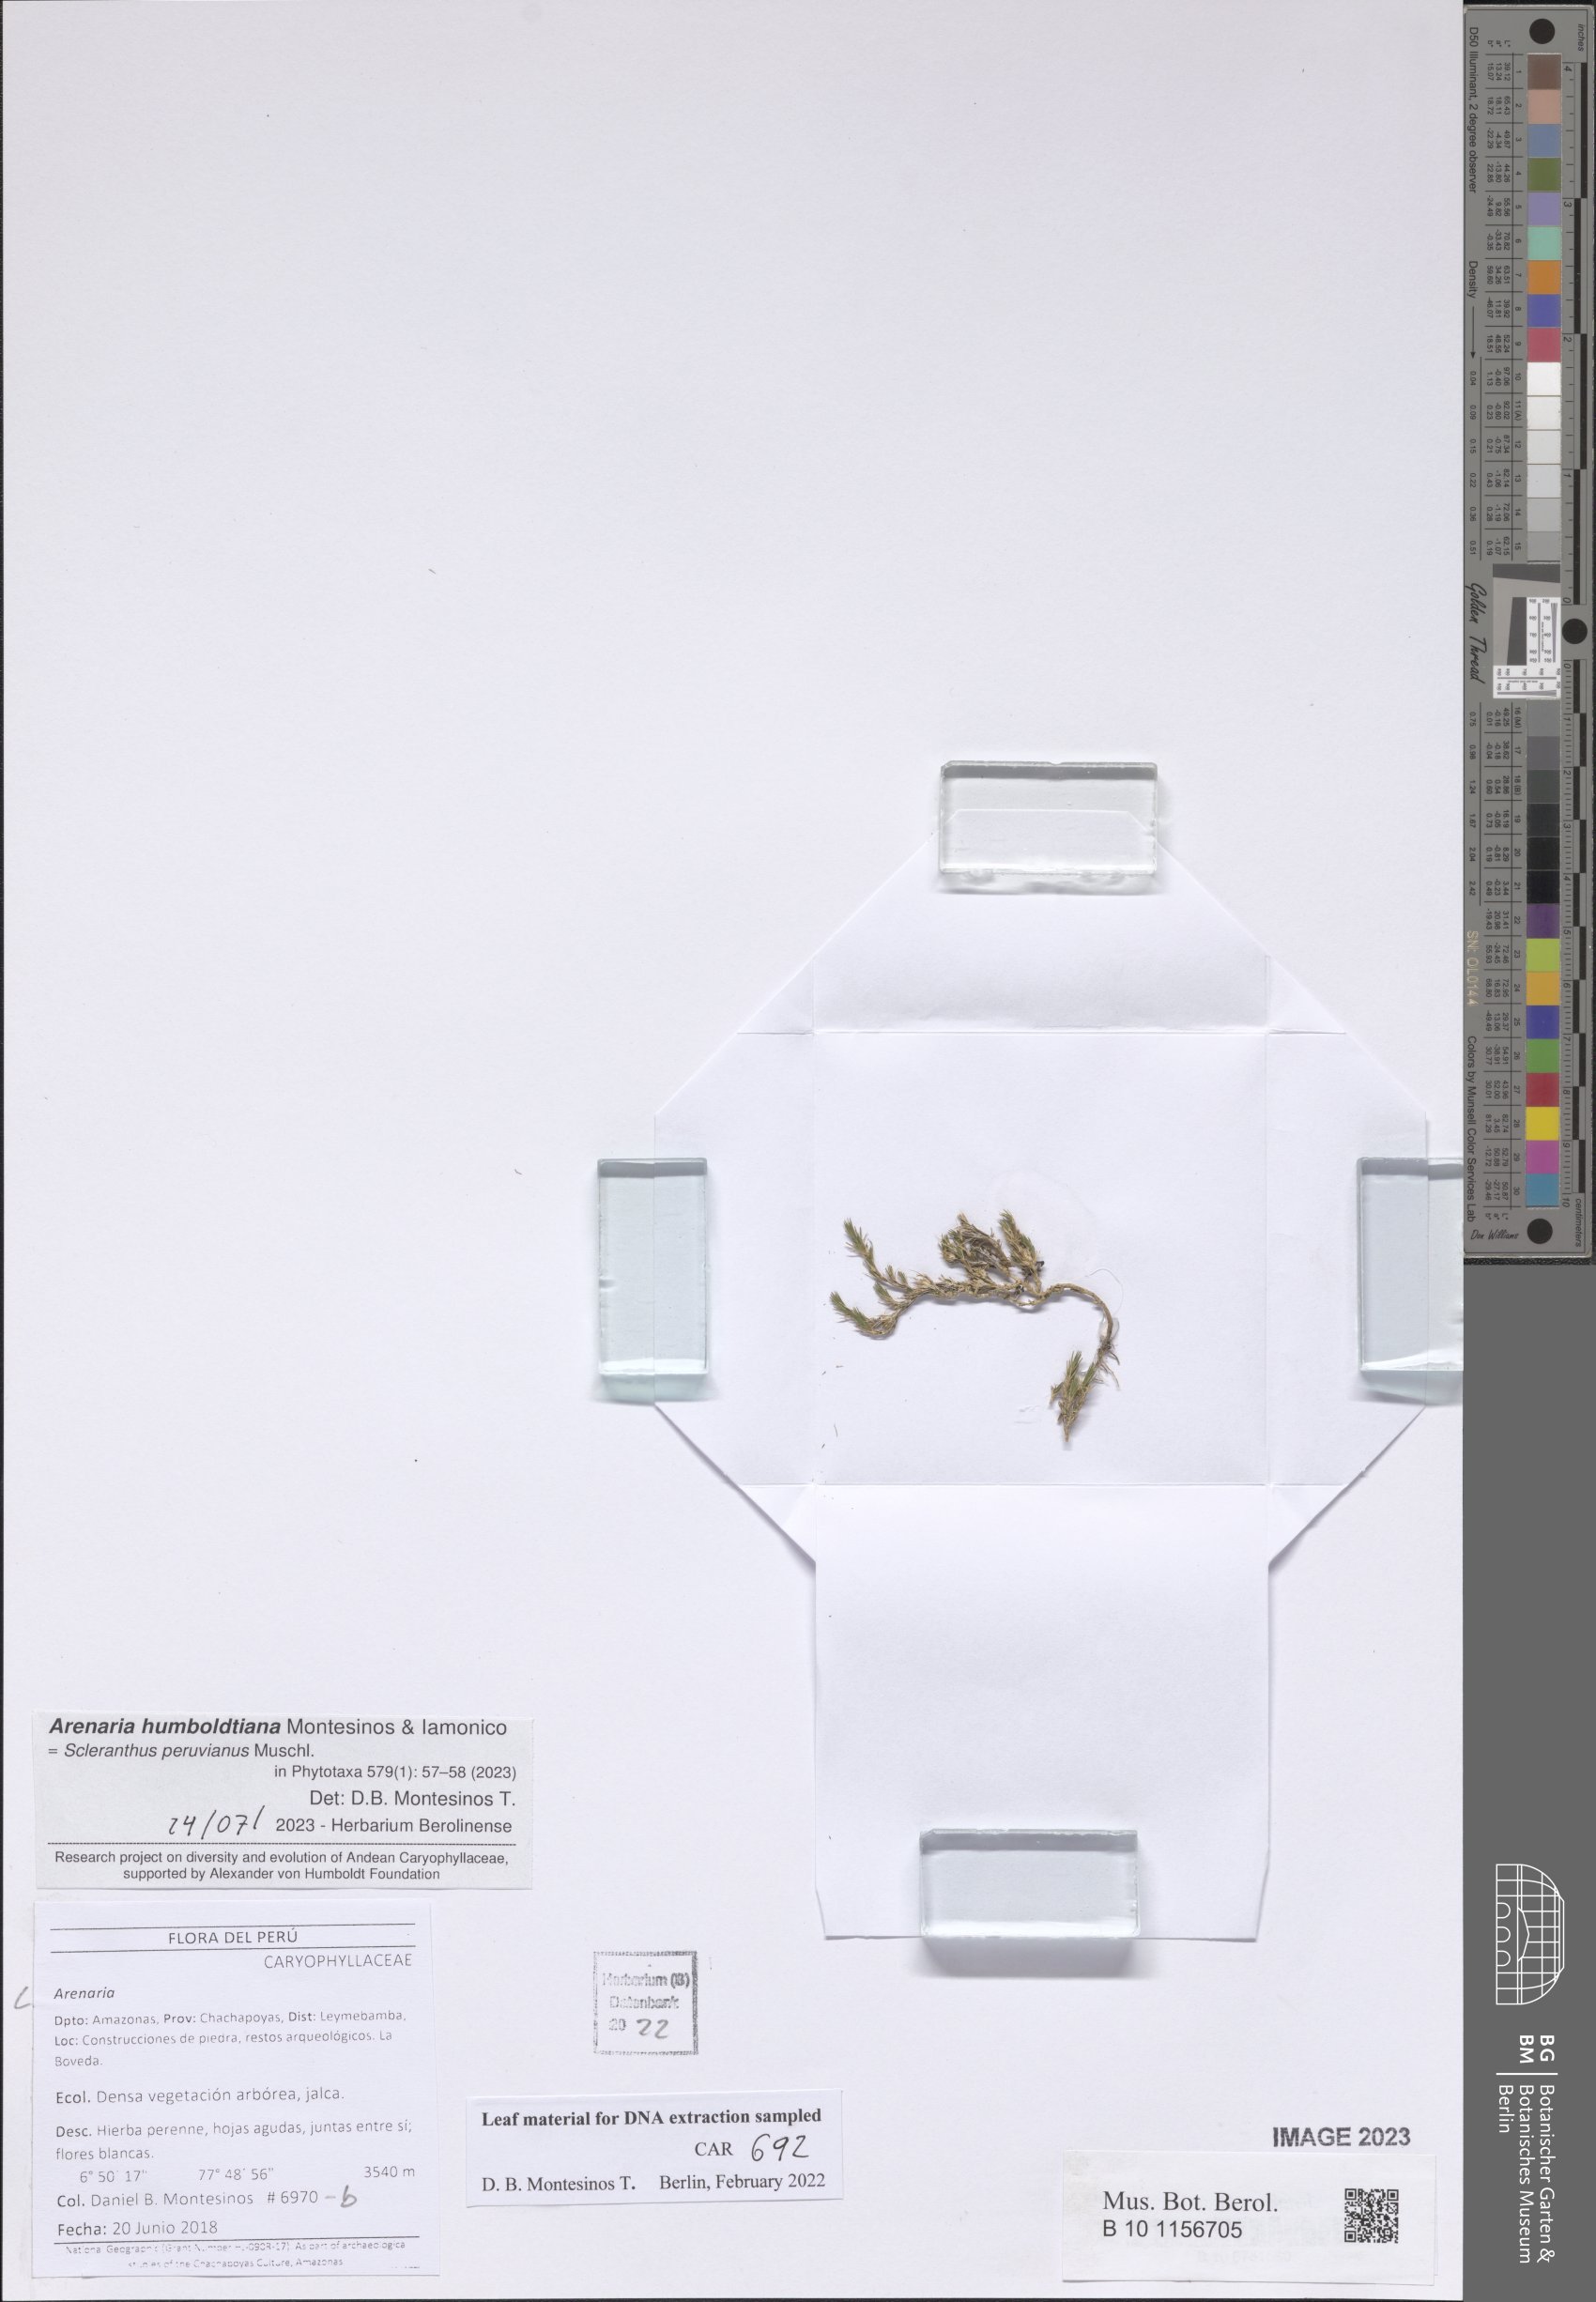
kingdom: Plantae
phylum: Tracheophyta
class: Magnoliopsida
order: Caryophyllales
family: Caryophyllaceae
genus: Arenaria
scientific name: Arenaria
